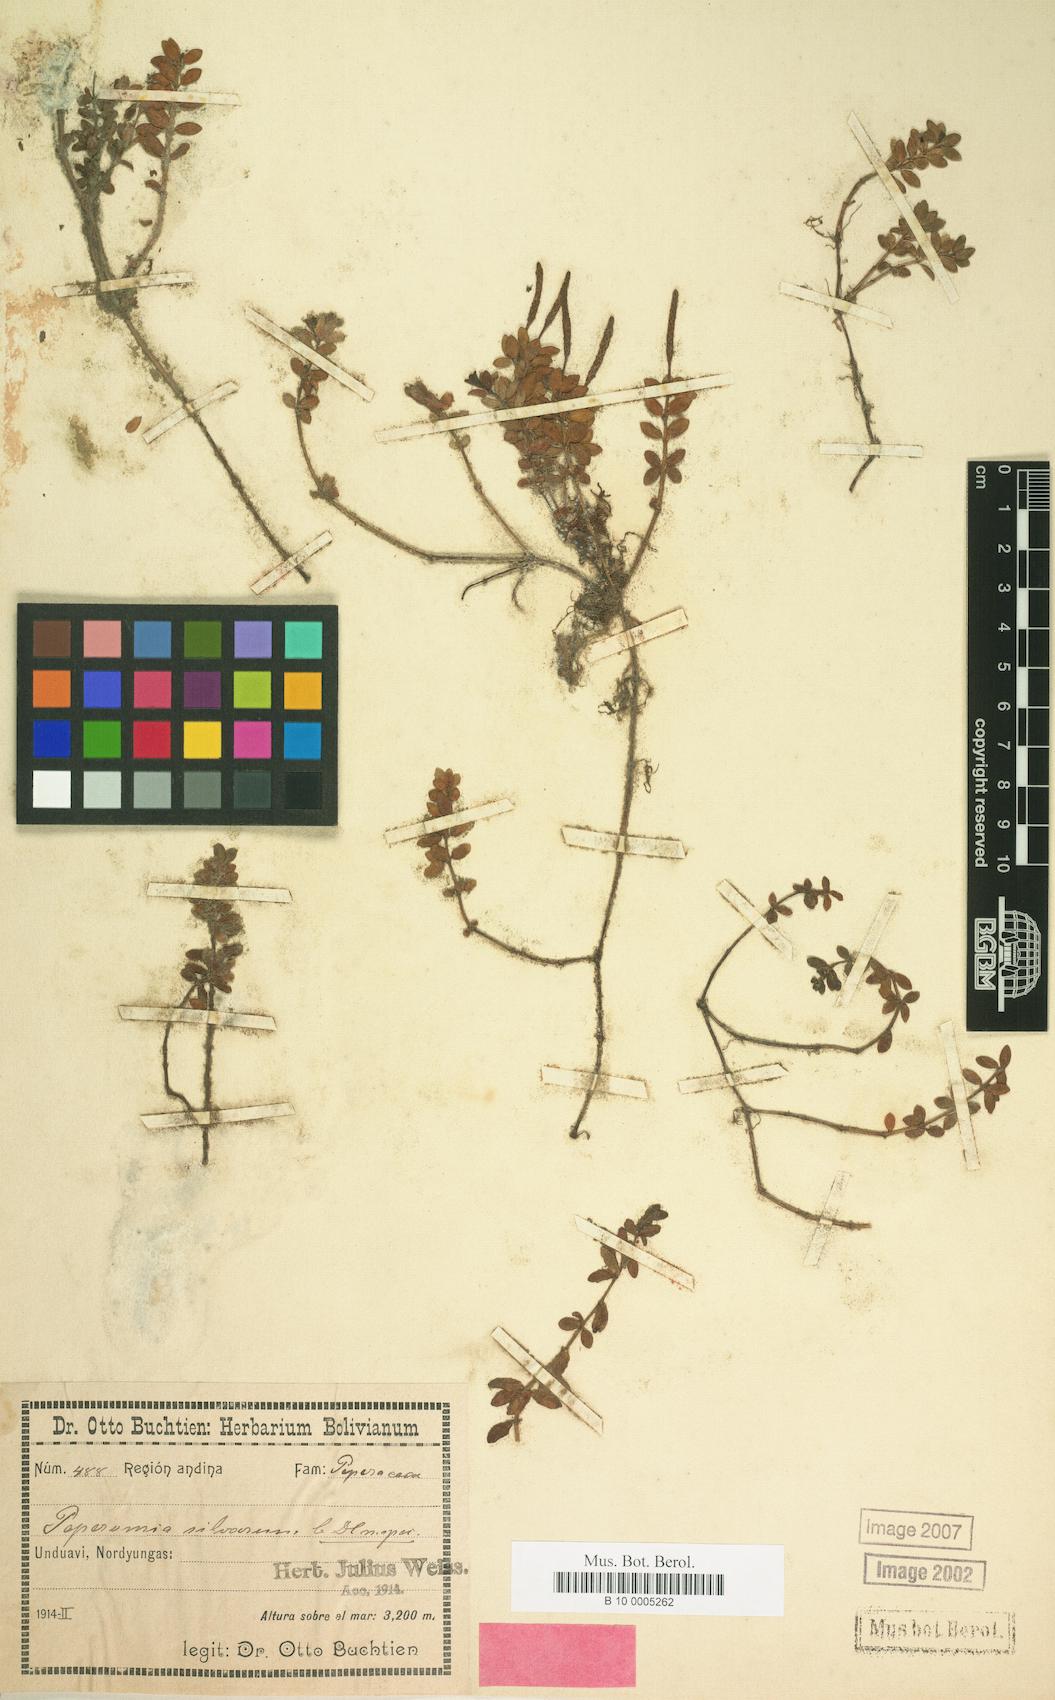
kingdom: Plantae
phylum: Tracheophyta
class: Magnoliopsida
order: Piperales
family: Piperaceae
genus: Peperomia
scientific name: Peperomia silvarum
